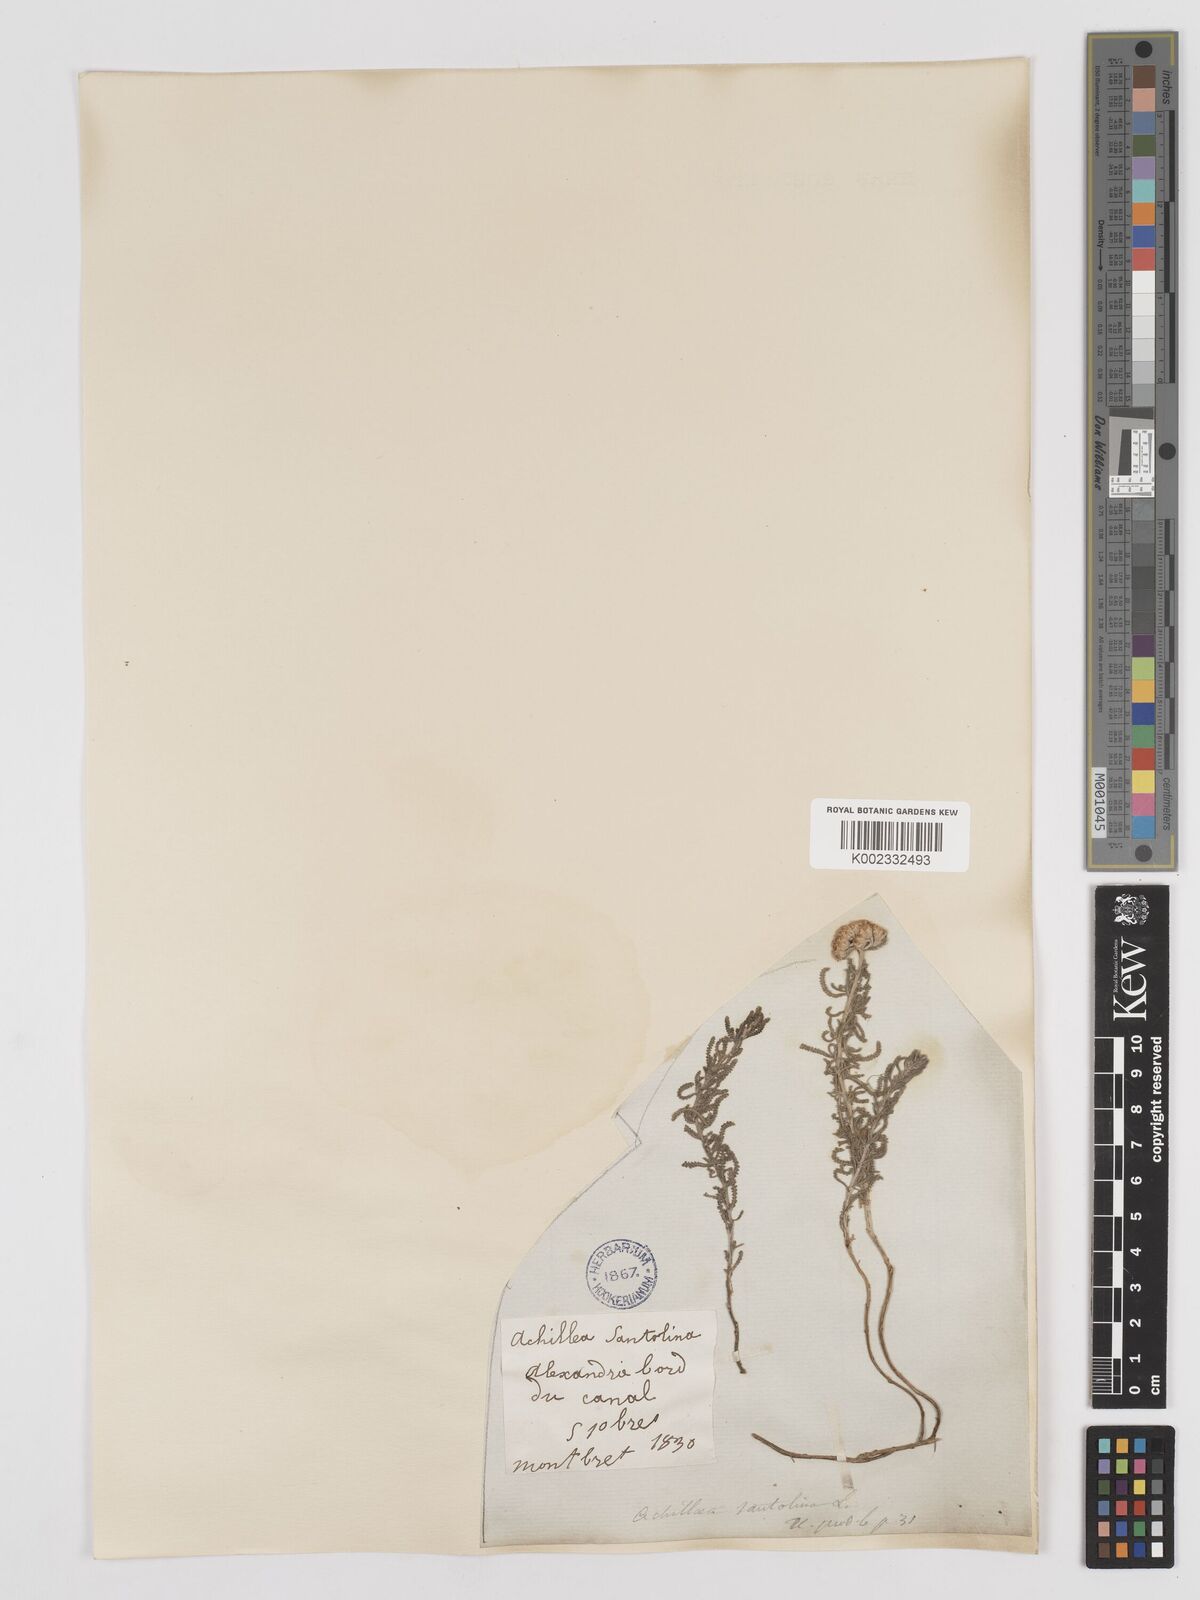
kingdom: Plantae
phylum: Tracheophyta
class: Magnoliopsida
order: Asterales
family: Asteraceae
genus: Achillea
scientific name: Achillea tenuifolia
